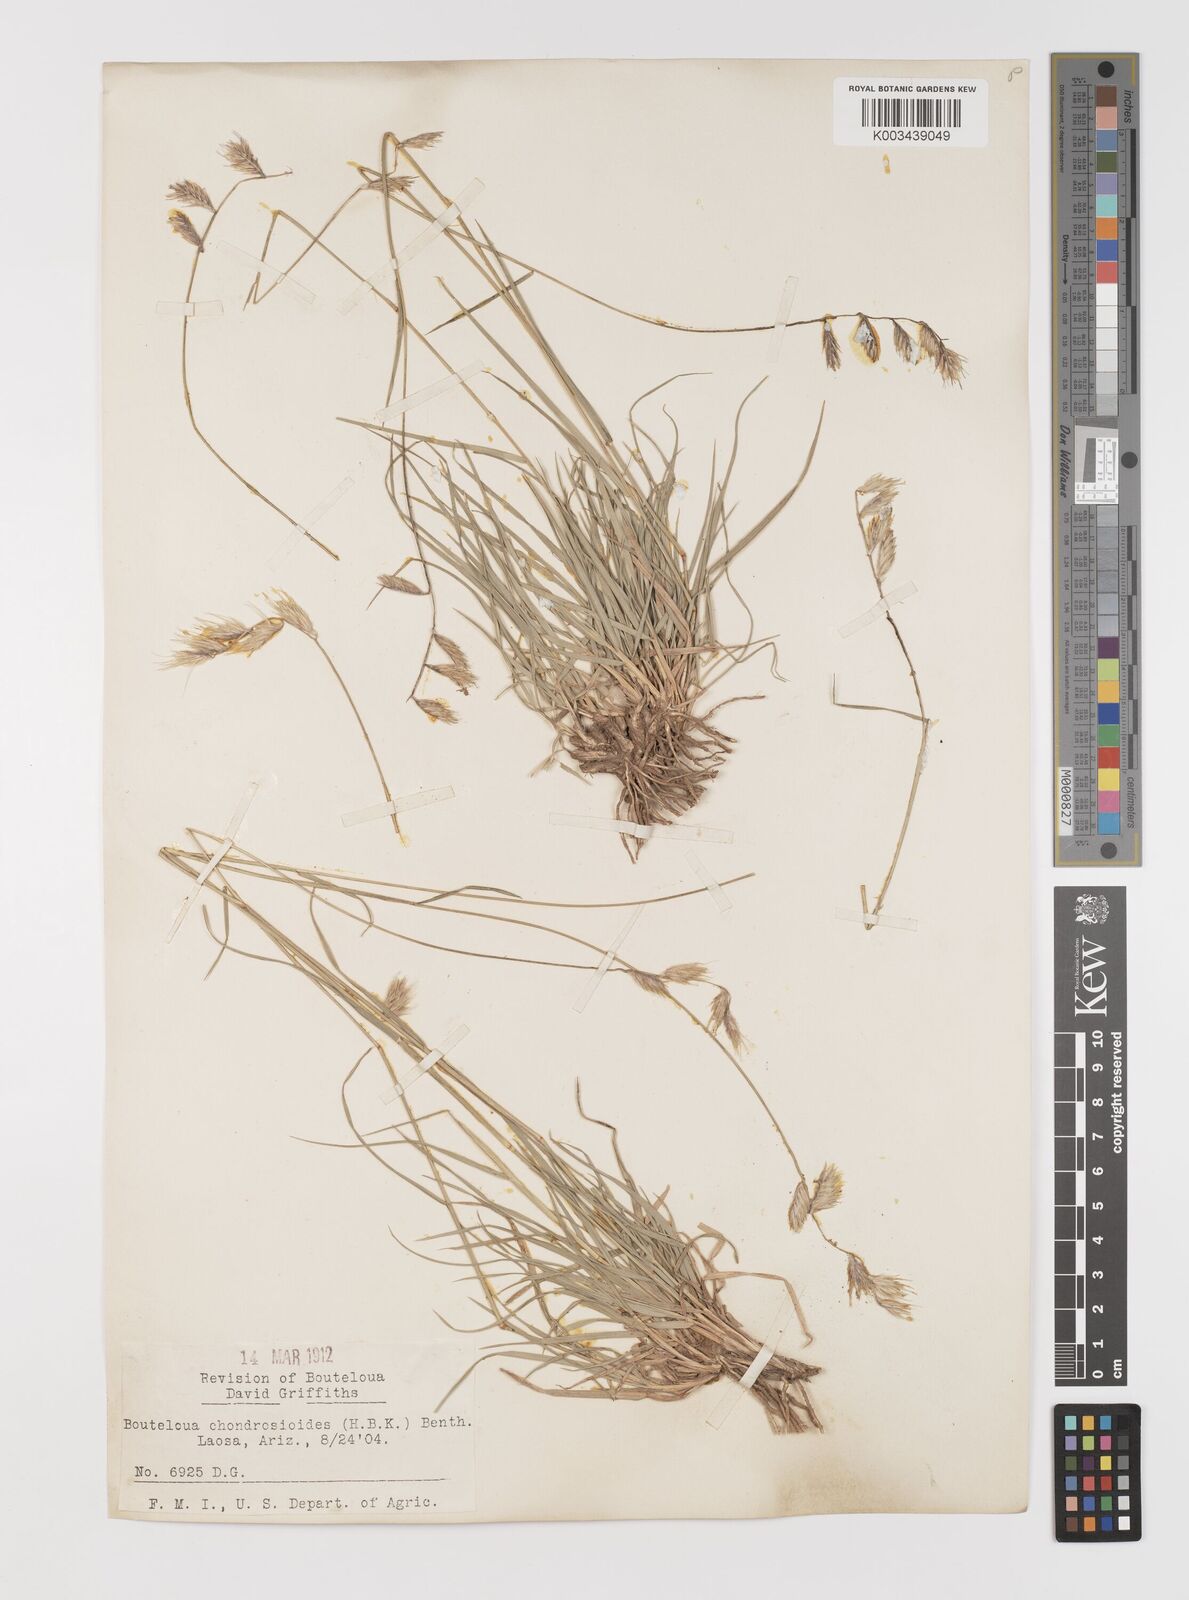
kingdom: Plantae
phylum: Tracheophyta
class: Liliopsida
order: Poales
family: Poaceae
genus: Bouteloua
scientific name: Bouteloua chondrosioides
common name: Sprucetop grama
